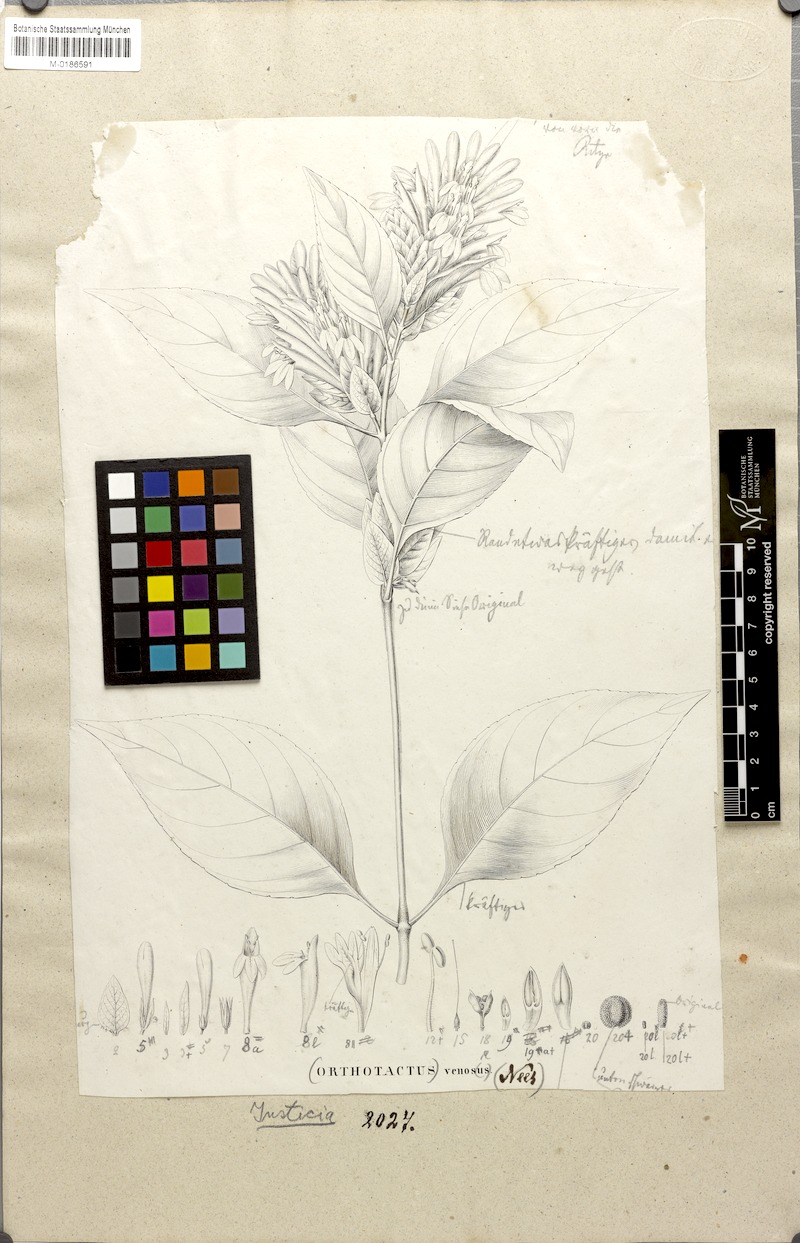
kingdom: Plantae
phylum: Tracheophyta
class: Magnoliopsida
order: Lamiales
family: Acanthaceae
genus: Justicia
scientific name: Justicia aequilabris
